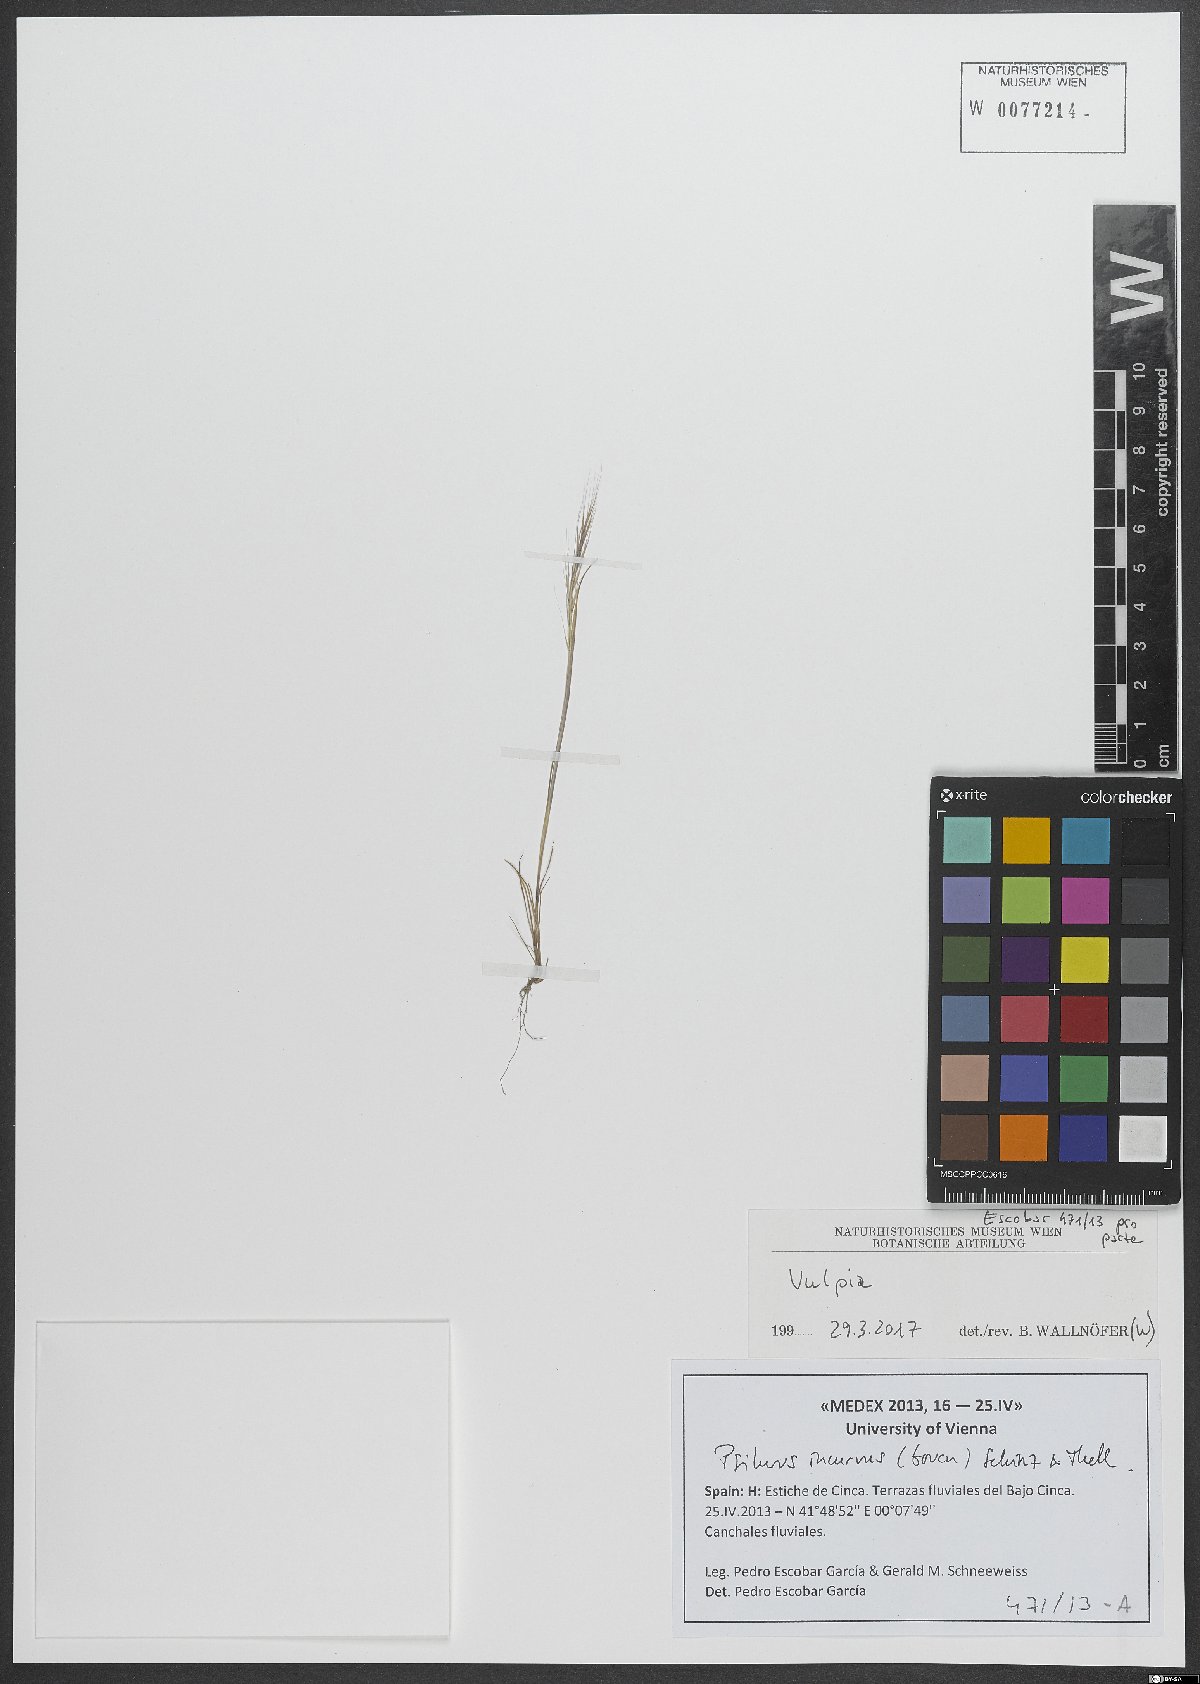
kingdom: Plantae
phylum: Tracheophyta
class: Liliopsida
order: Poales
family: Poaceae
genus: Festuca
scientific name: Festuca
